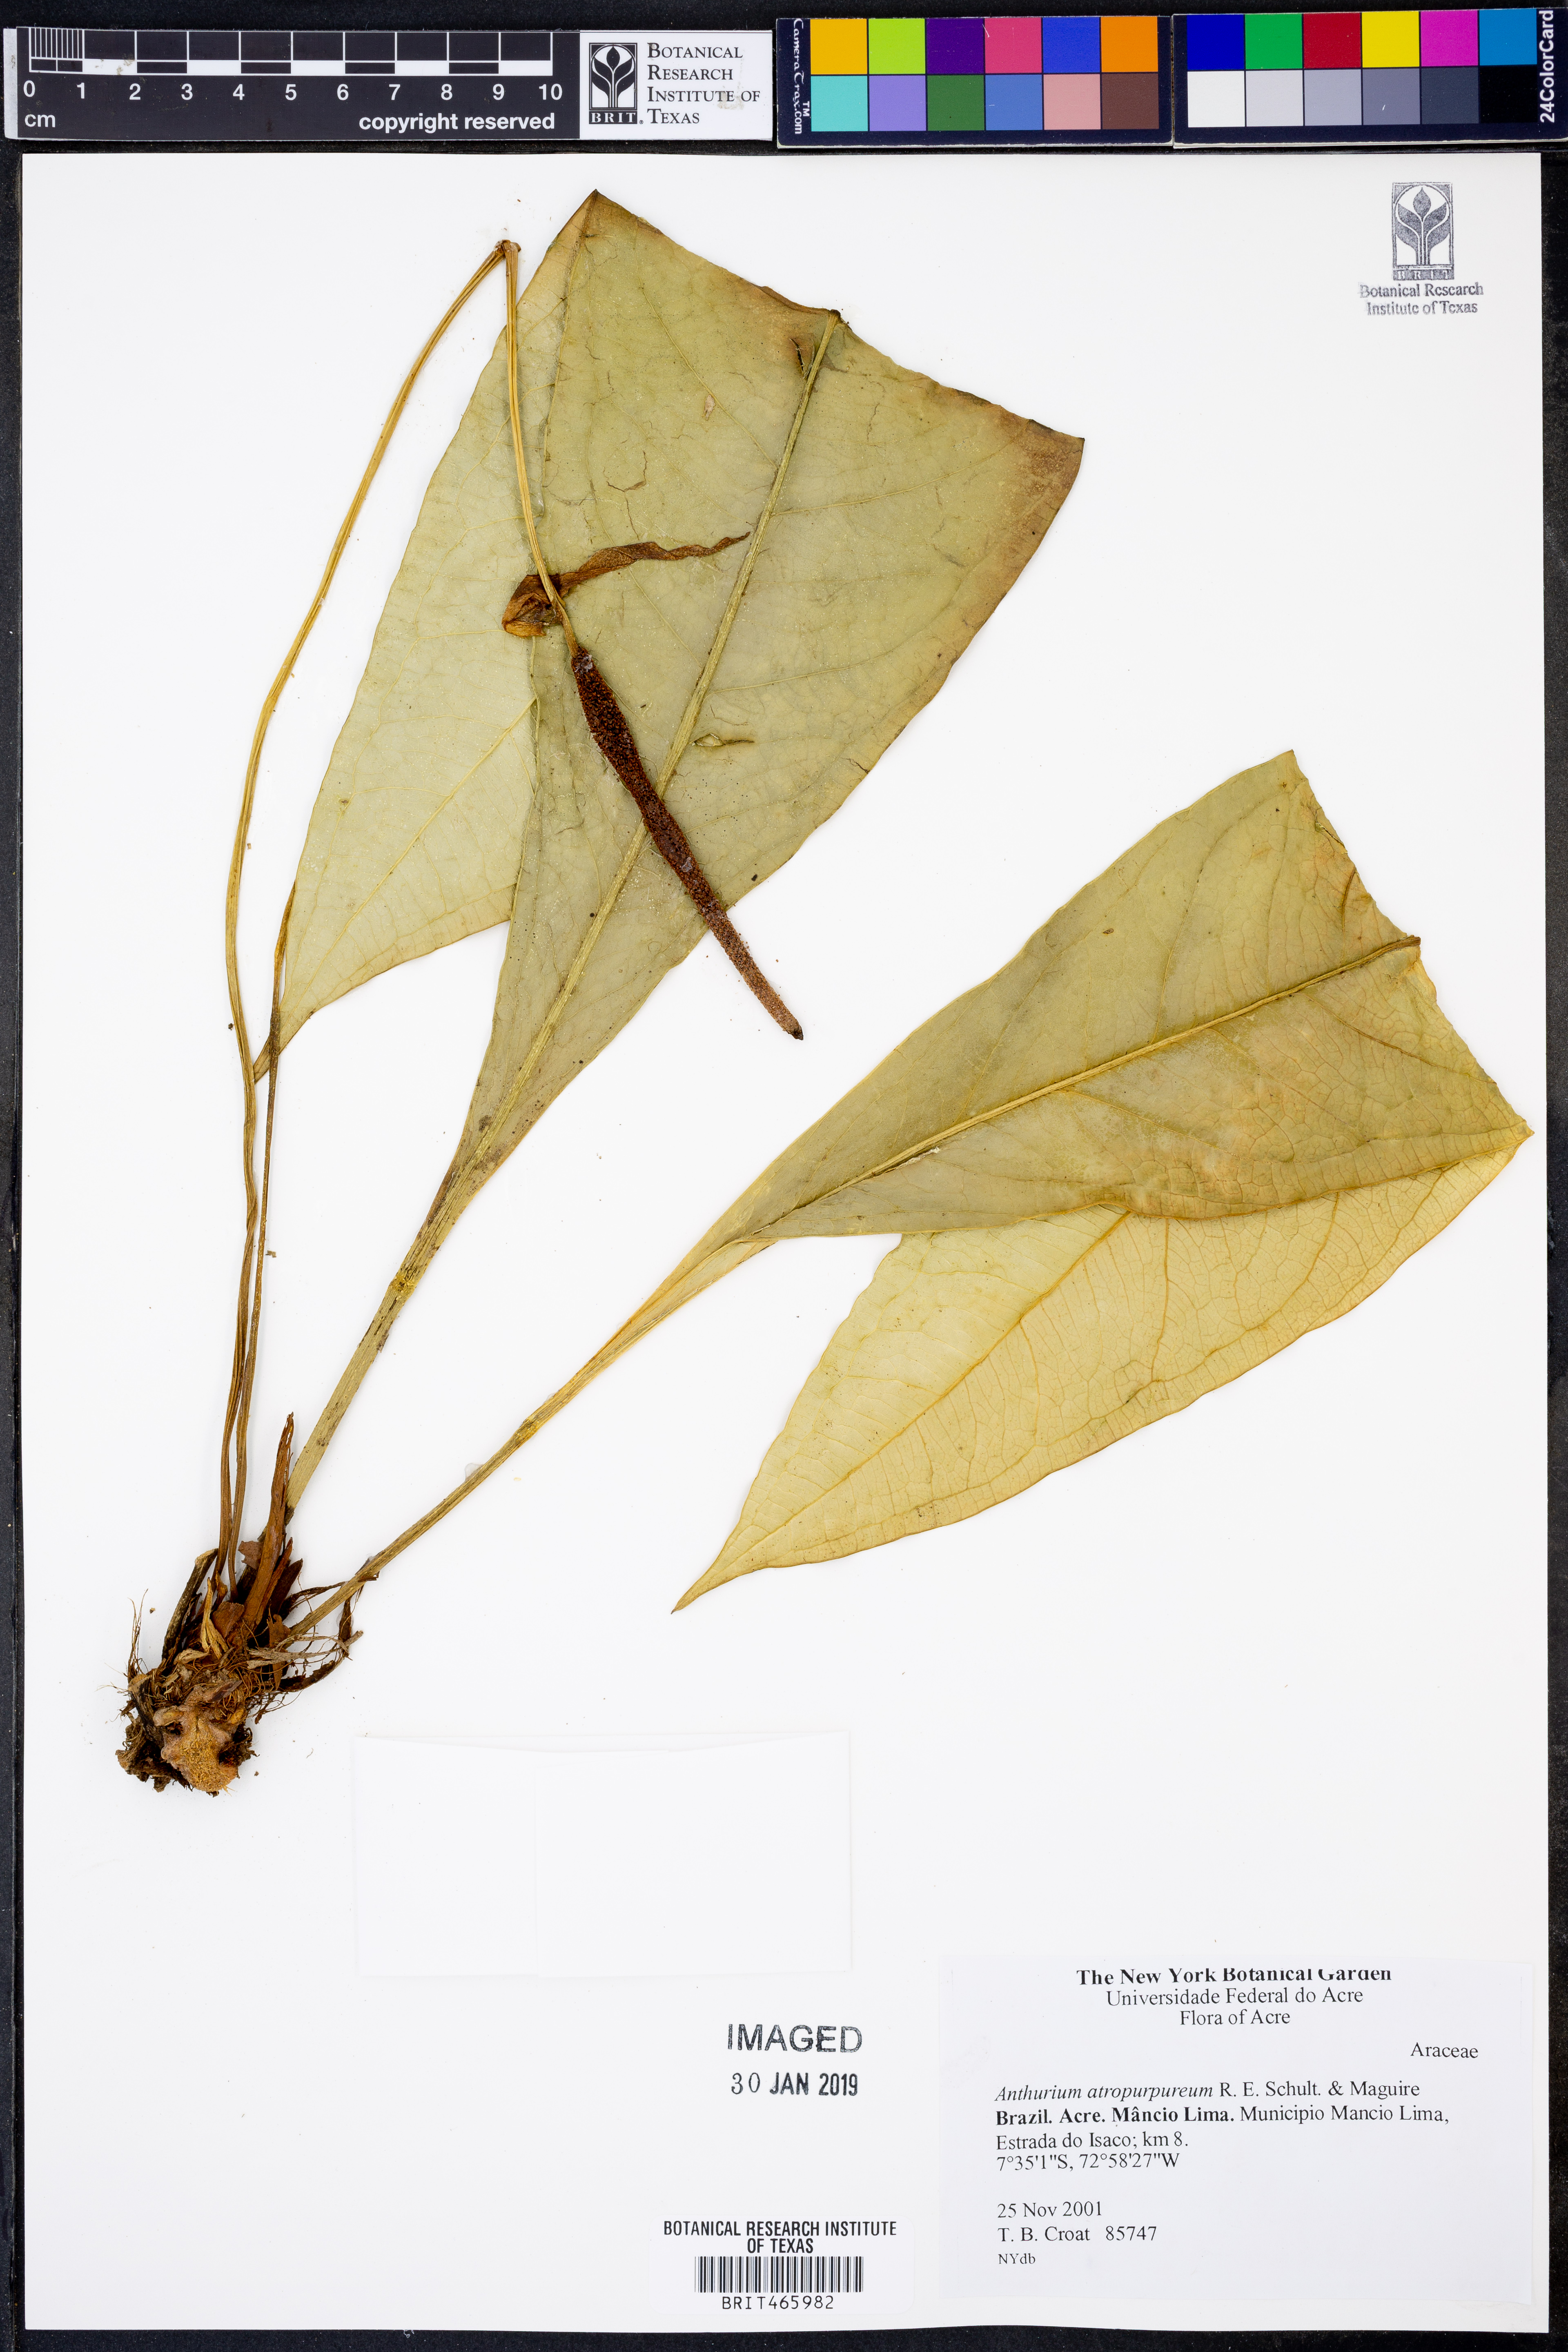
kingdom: Plantae
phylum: Tracheophyta
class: Liliopsida
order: Alismatales
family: Araceae
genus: Anthurium
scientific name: Anthurium atropurpureum
